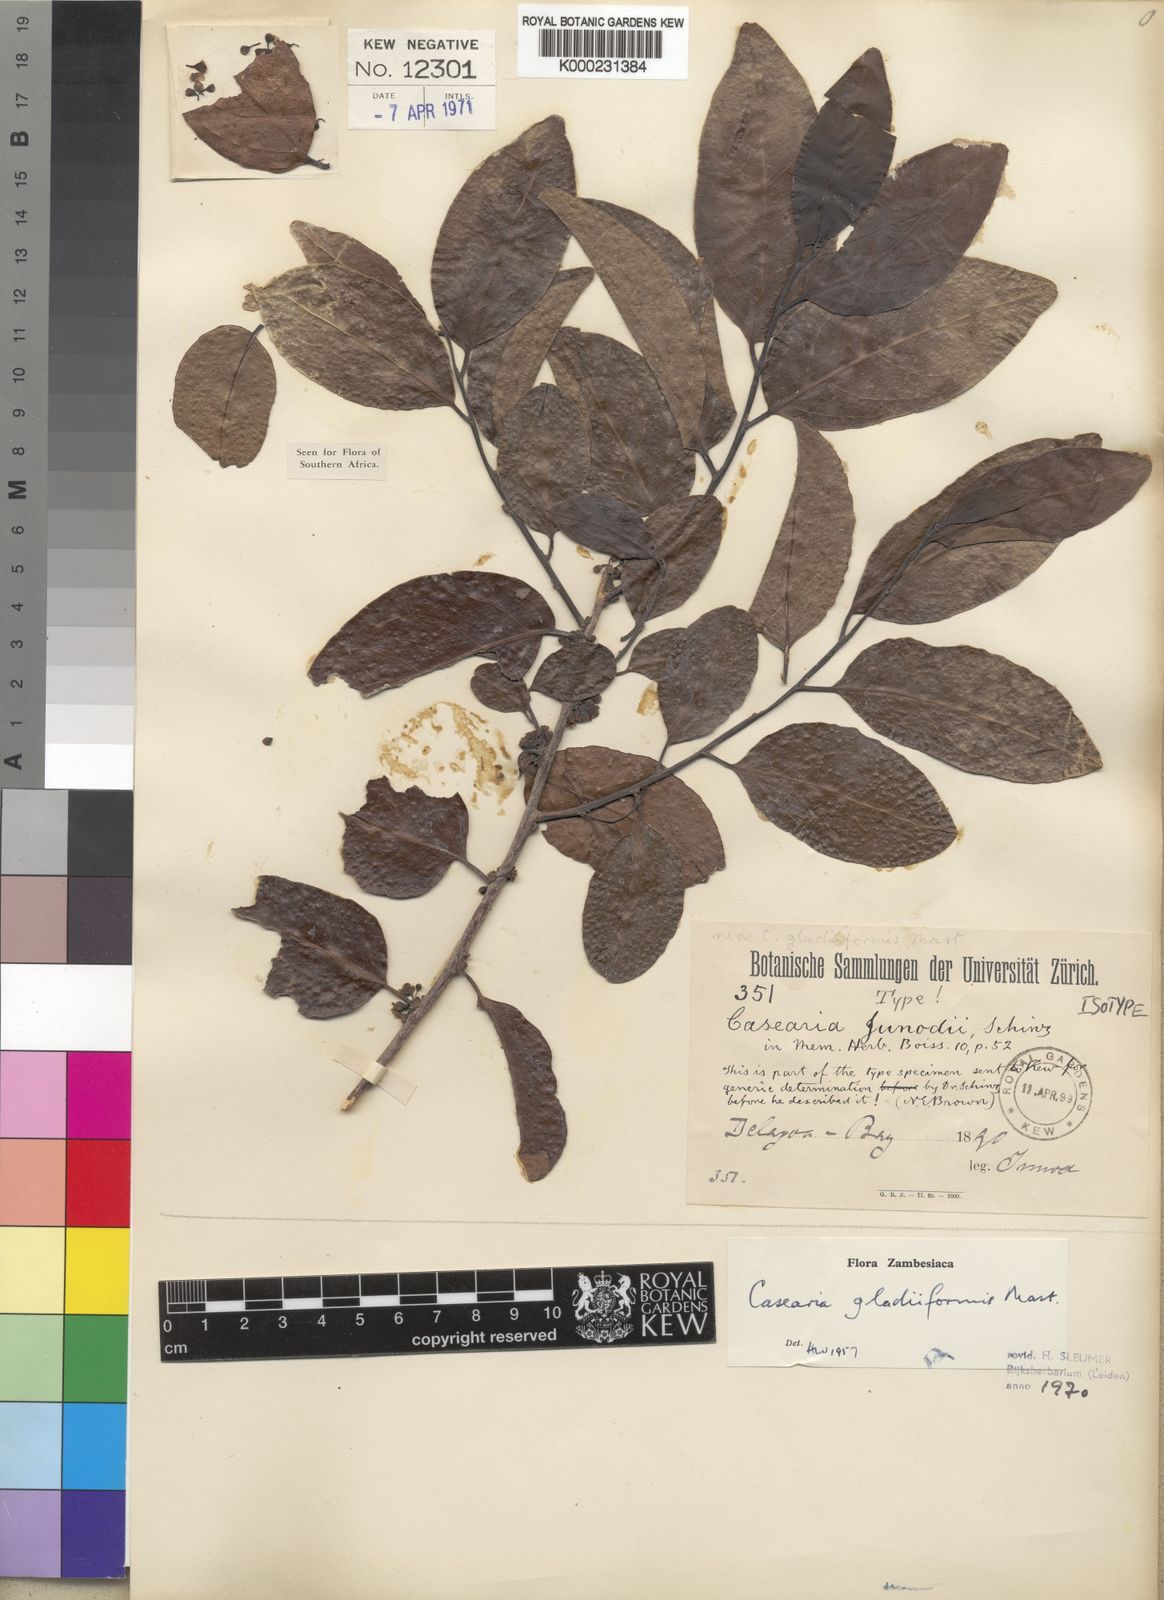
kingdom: Plantae
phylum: Tracheophyta
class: Magnoliopsida
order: Malpighiales
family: Salicaceae
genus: Casearia
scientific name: Casearia gladiiformis
